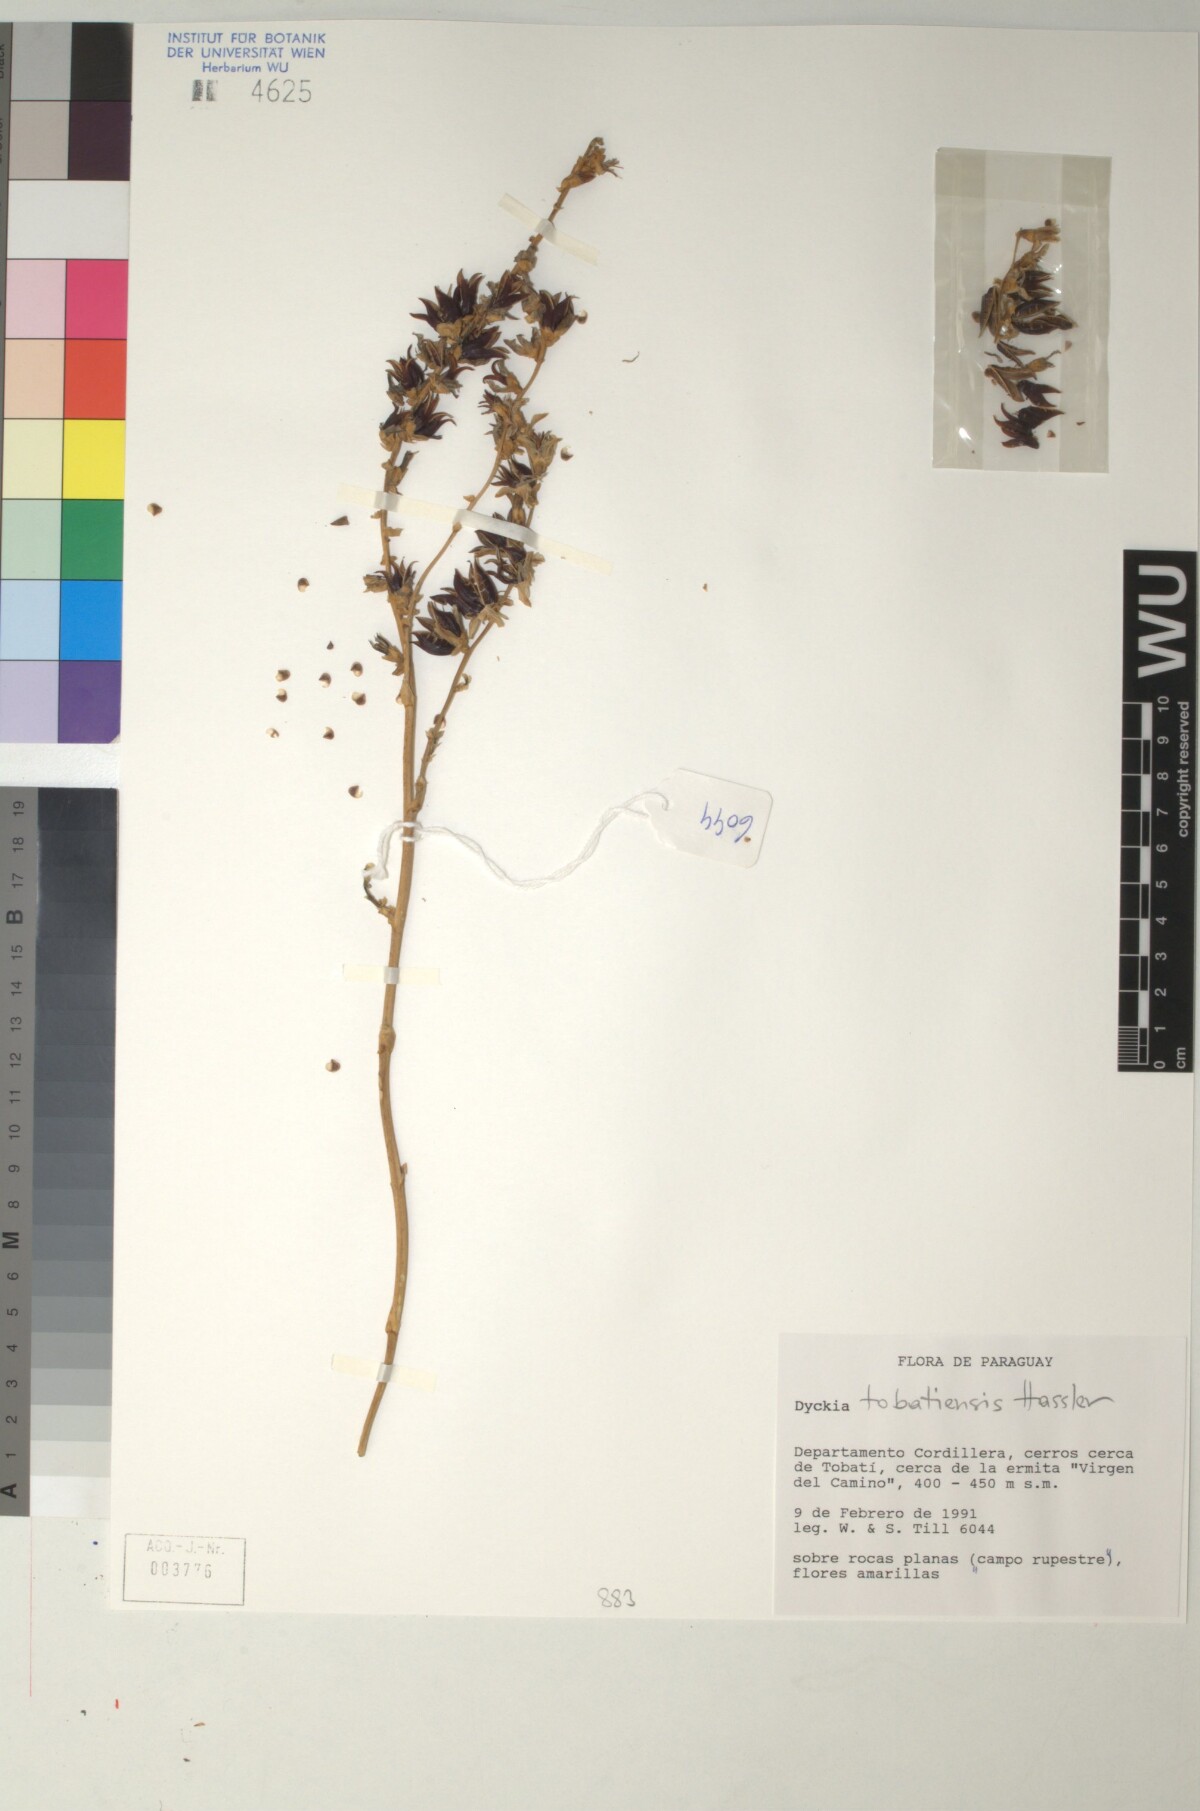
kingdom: Plantae
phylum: Tracheophyta
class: Liliopsida
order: Poales
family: Bromeliaceae
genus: Dyckia
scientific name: Dyckia tobatiensis
